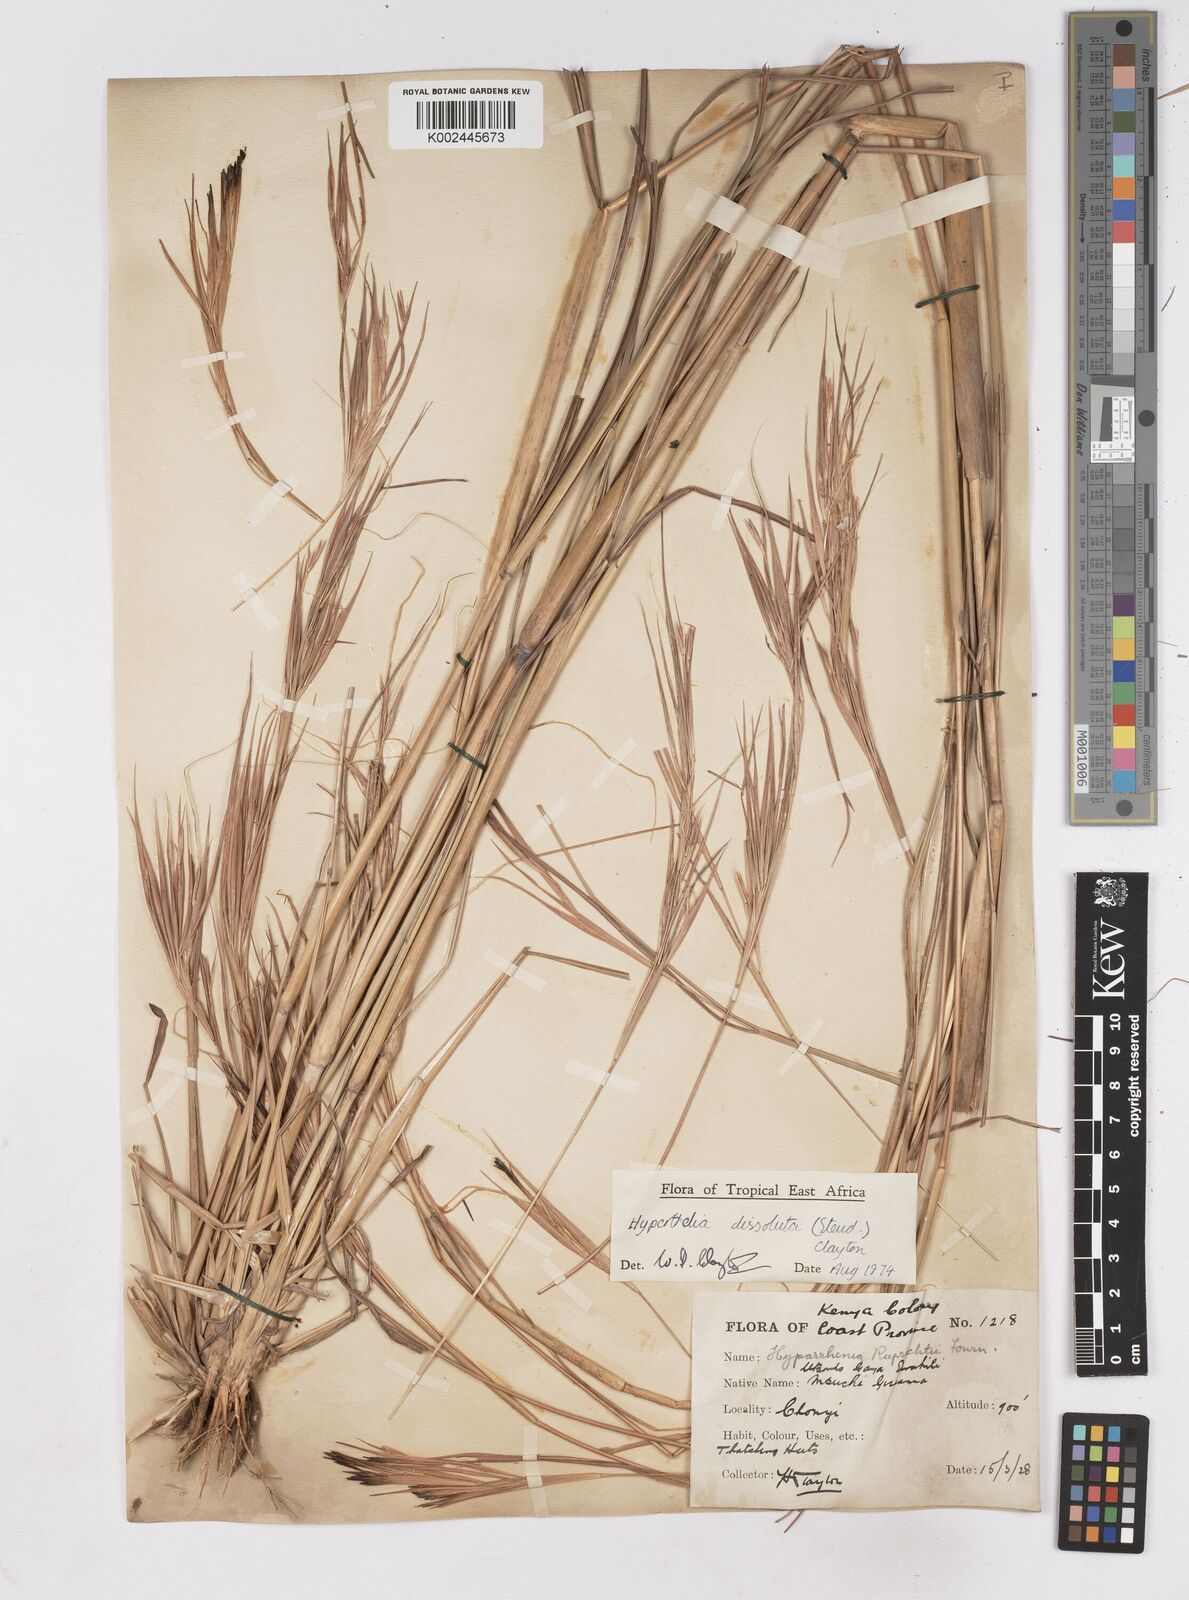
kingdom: Plantae
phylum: Tracheophyta
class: Liliopsida
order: Poales
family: Poaceae
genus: Hyperthelia
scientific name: Hyperthelia dissoluta
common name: Yellow thatching grass
